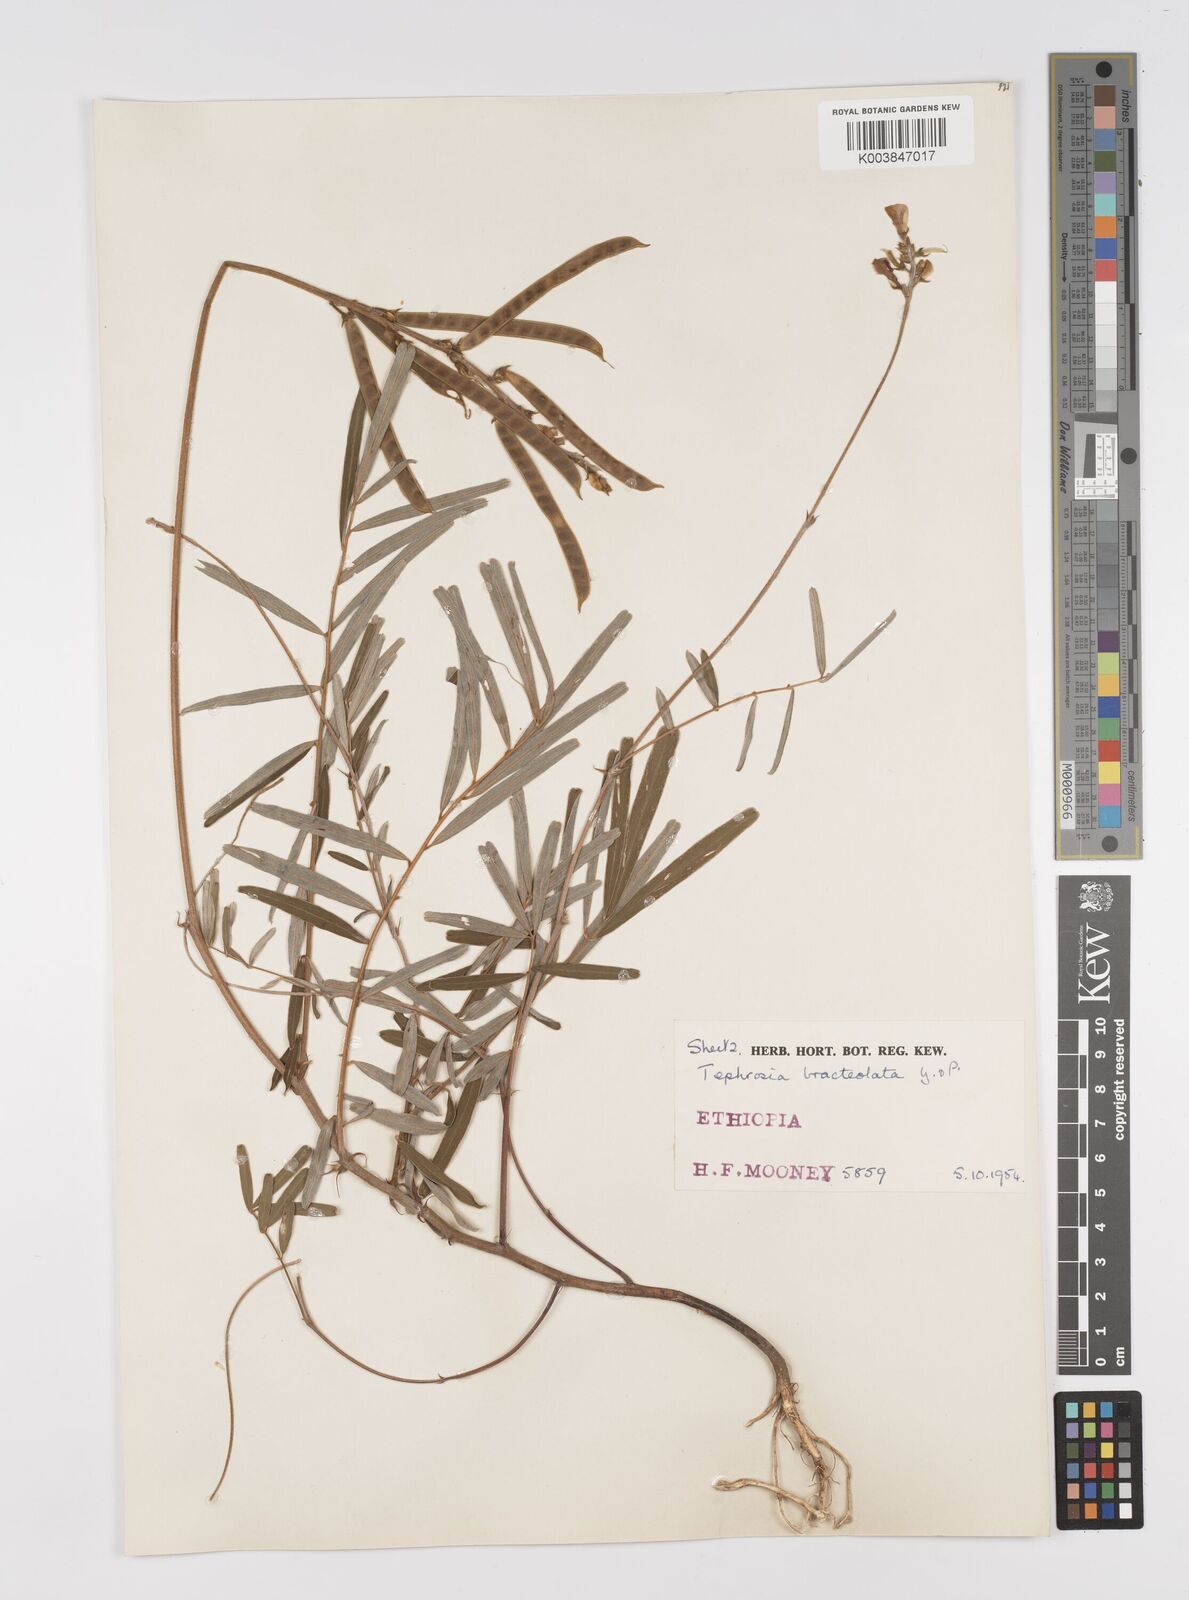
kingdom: Plantae
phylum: Tracheophyta
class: Magnoliopsida
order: Fabales
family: Fabaceae
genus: Tephrosia
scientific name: Tephrosia bracteolata
